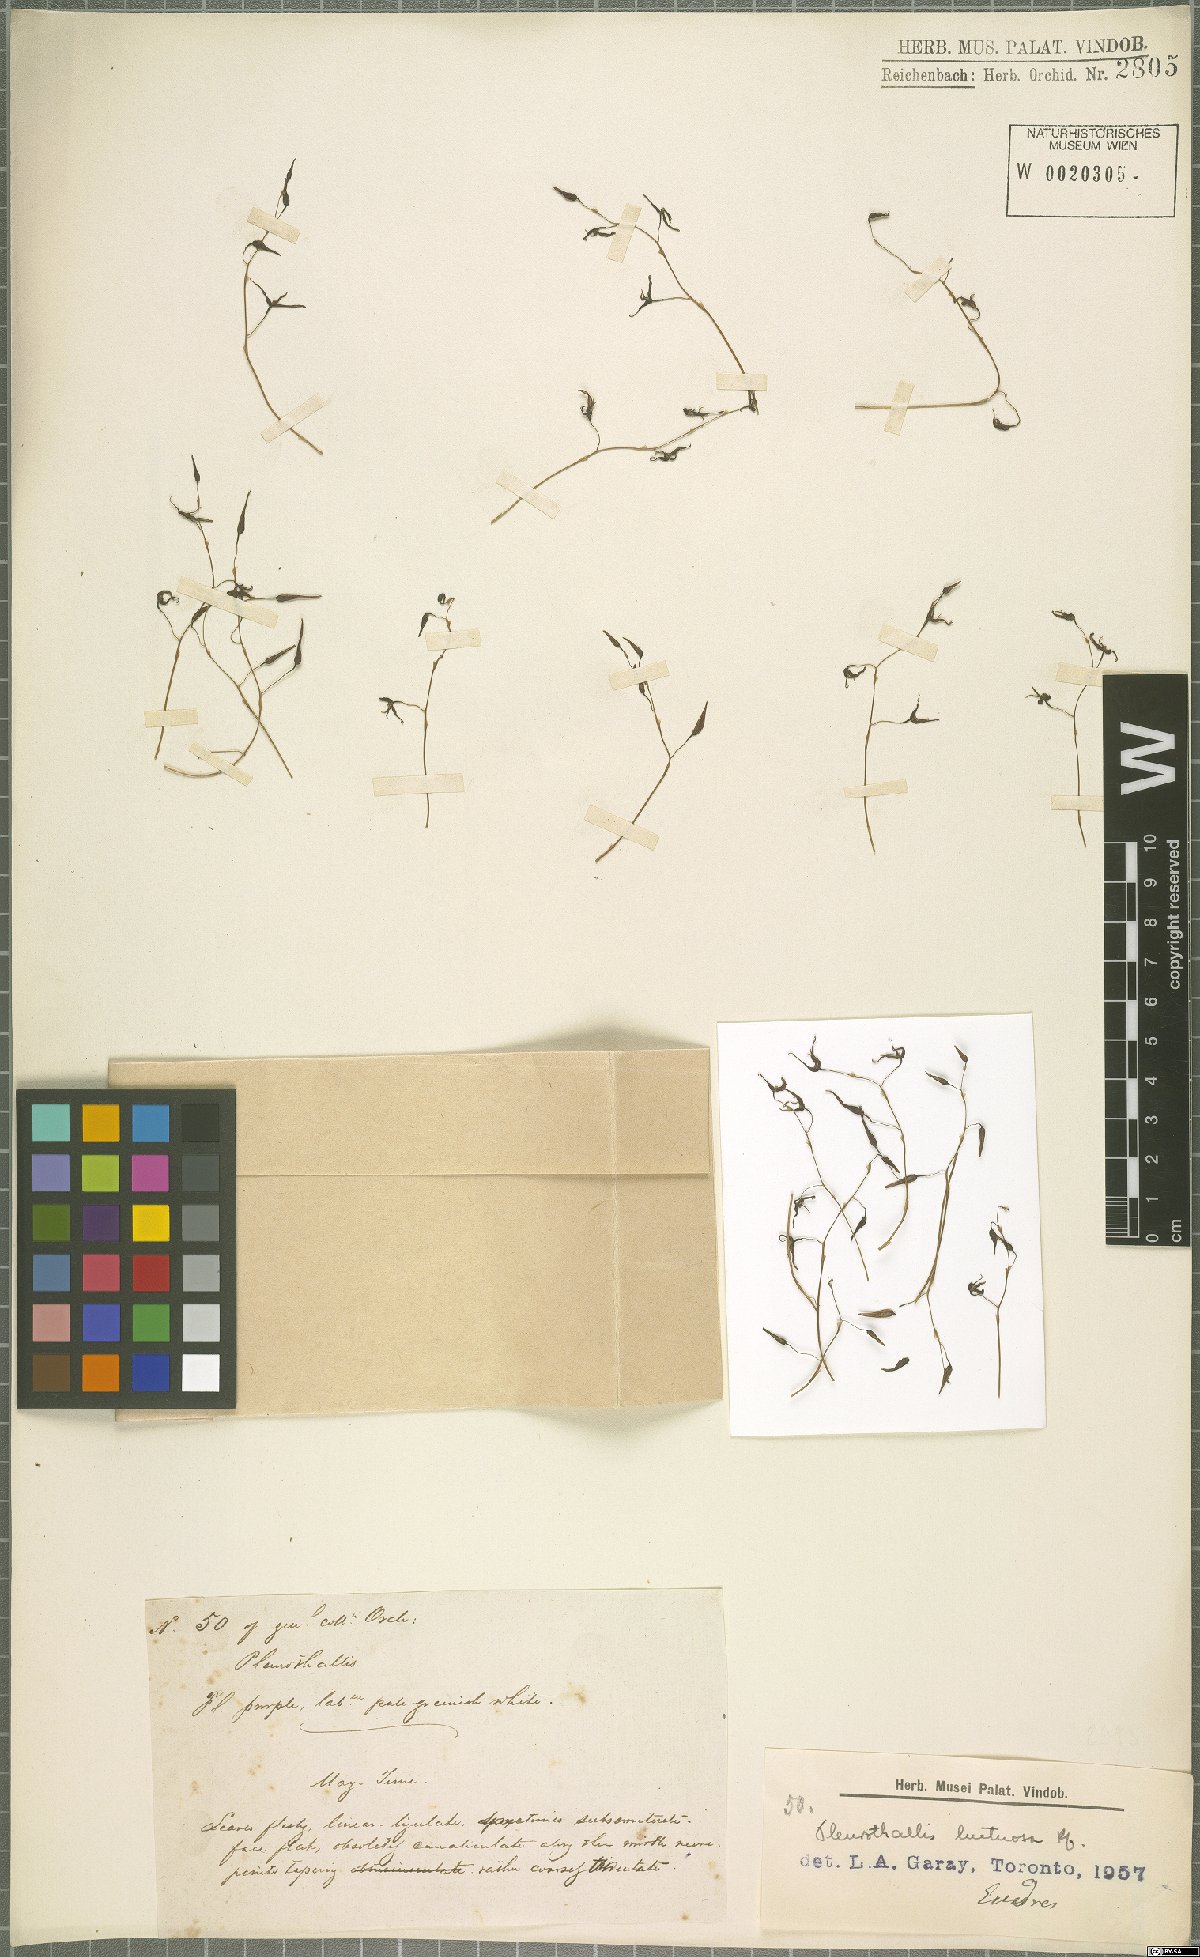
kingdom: Plantae
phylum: Tracheophyta
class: Liliopsida
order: Asparagales
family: Orchidaceae
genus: Pleurothallis
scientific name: Pleurothallis luctuosa
